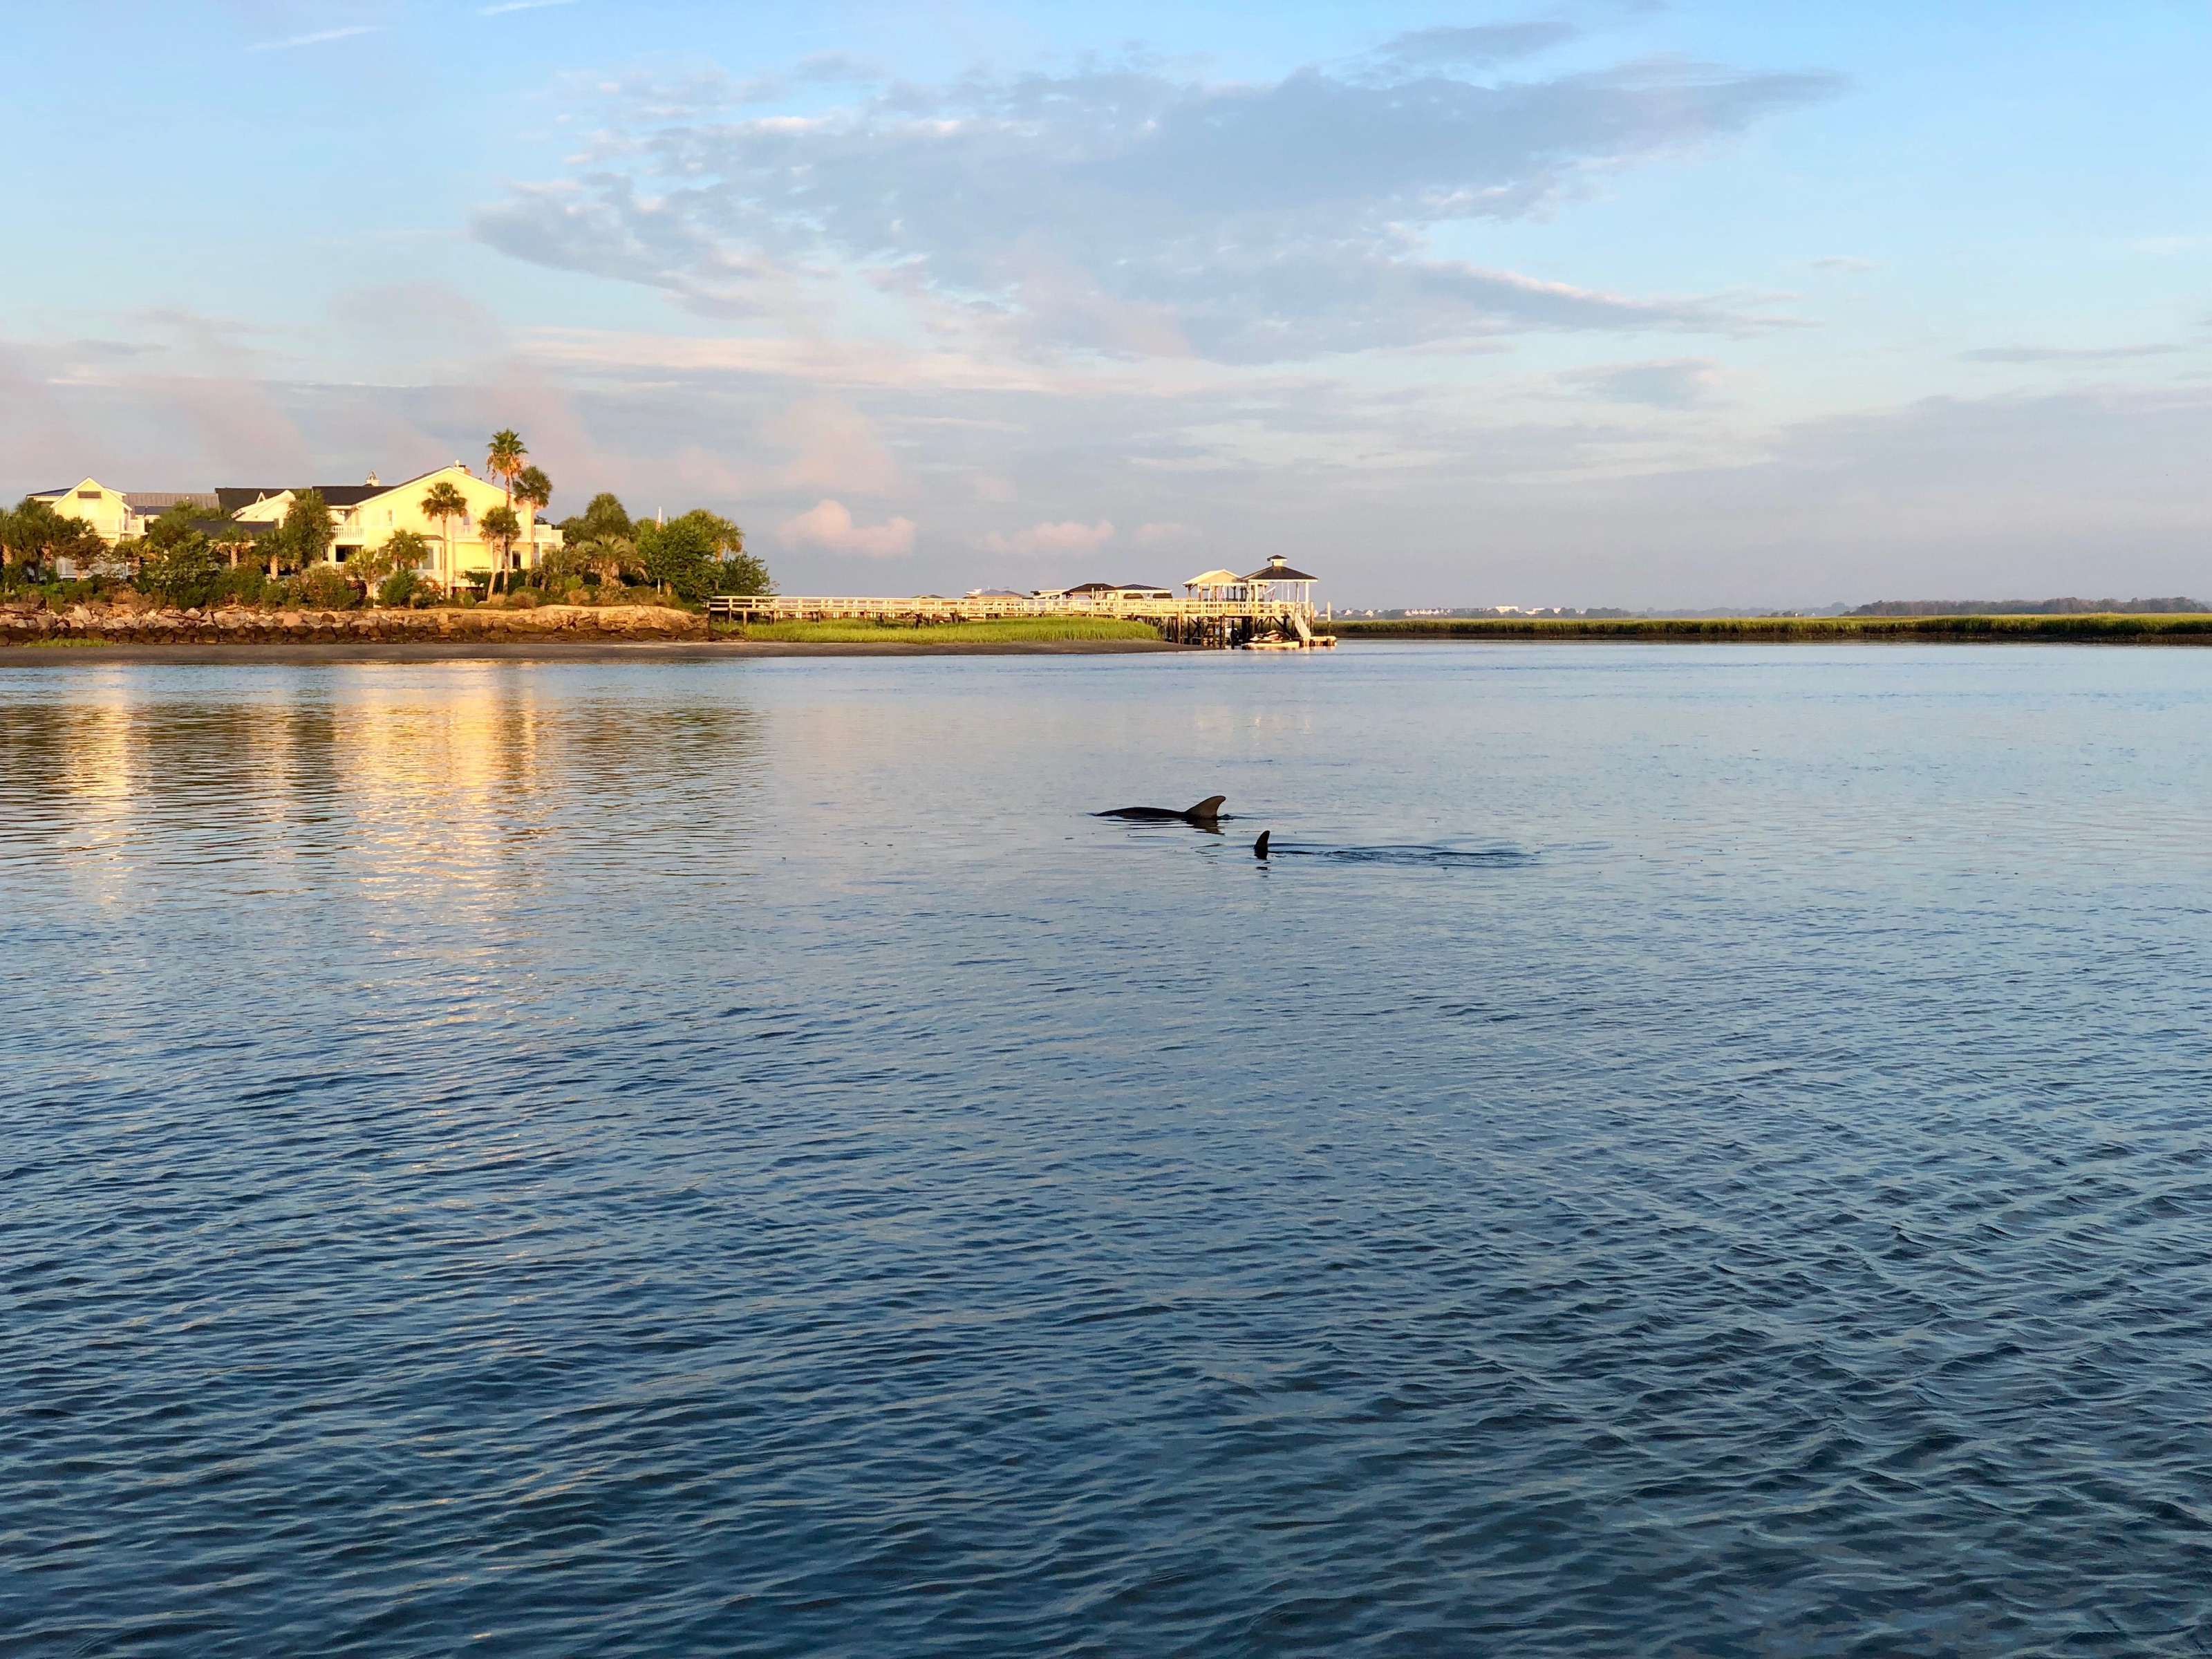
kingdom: Animalia
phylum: Chordata
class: Mammalia
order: Cetacea
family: Delphinidae
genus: Tursiops
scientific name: Tursiops truncatus
